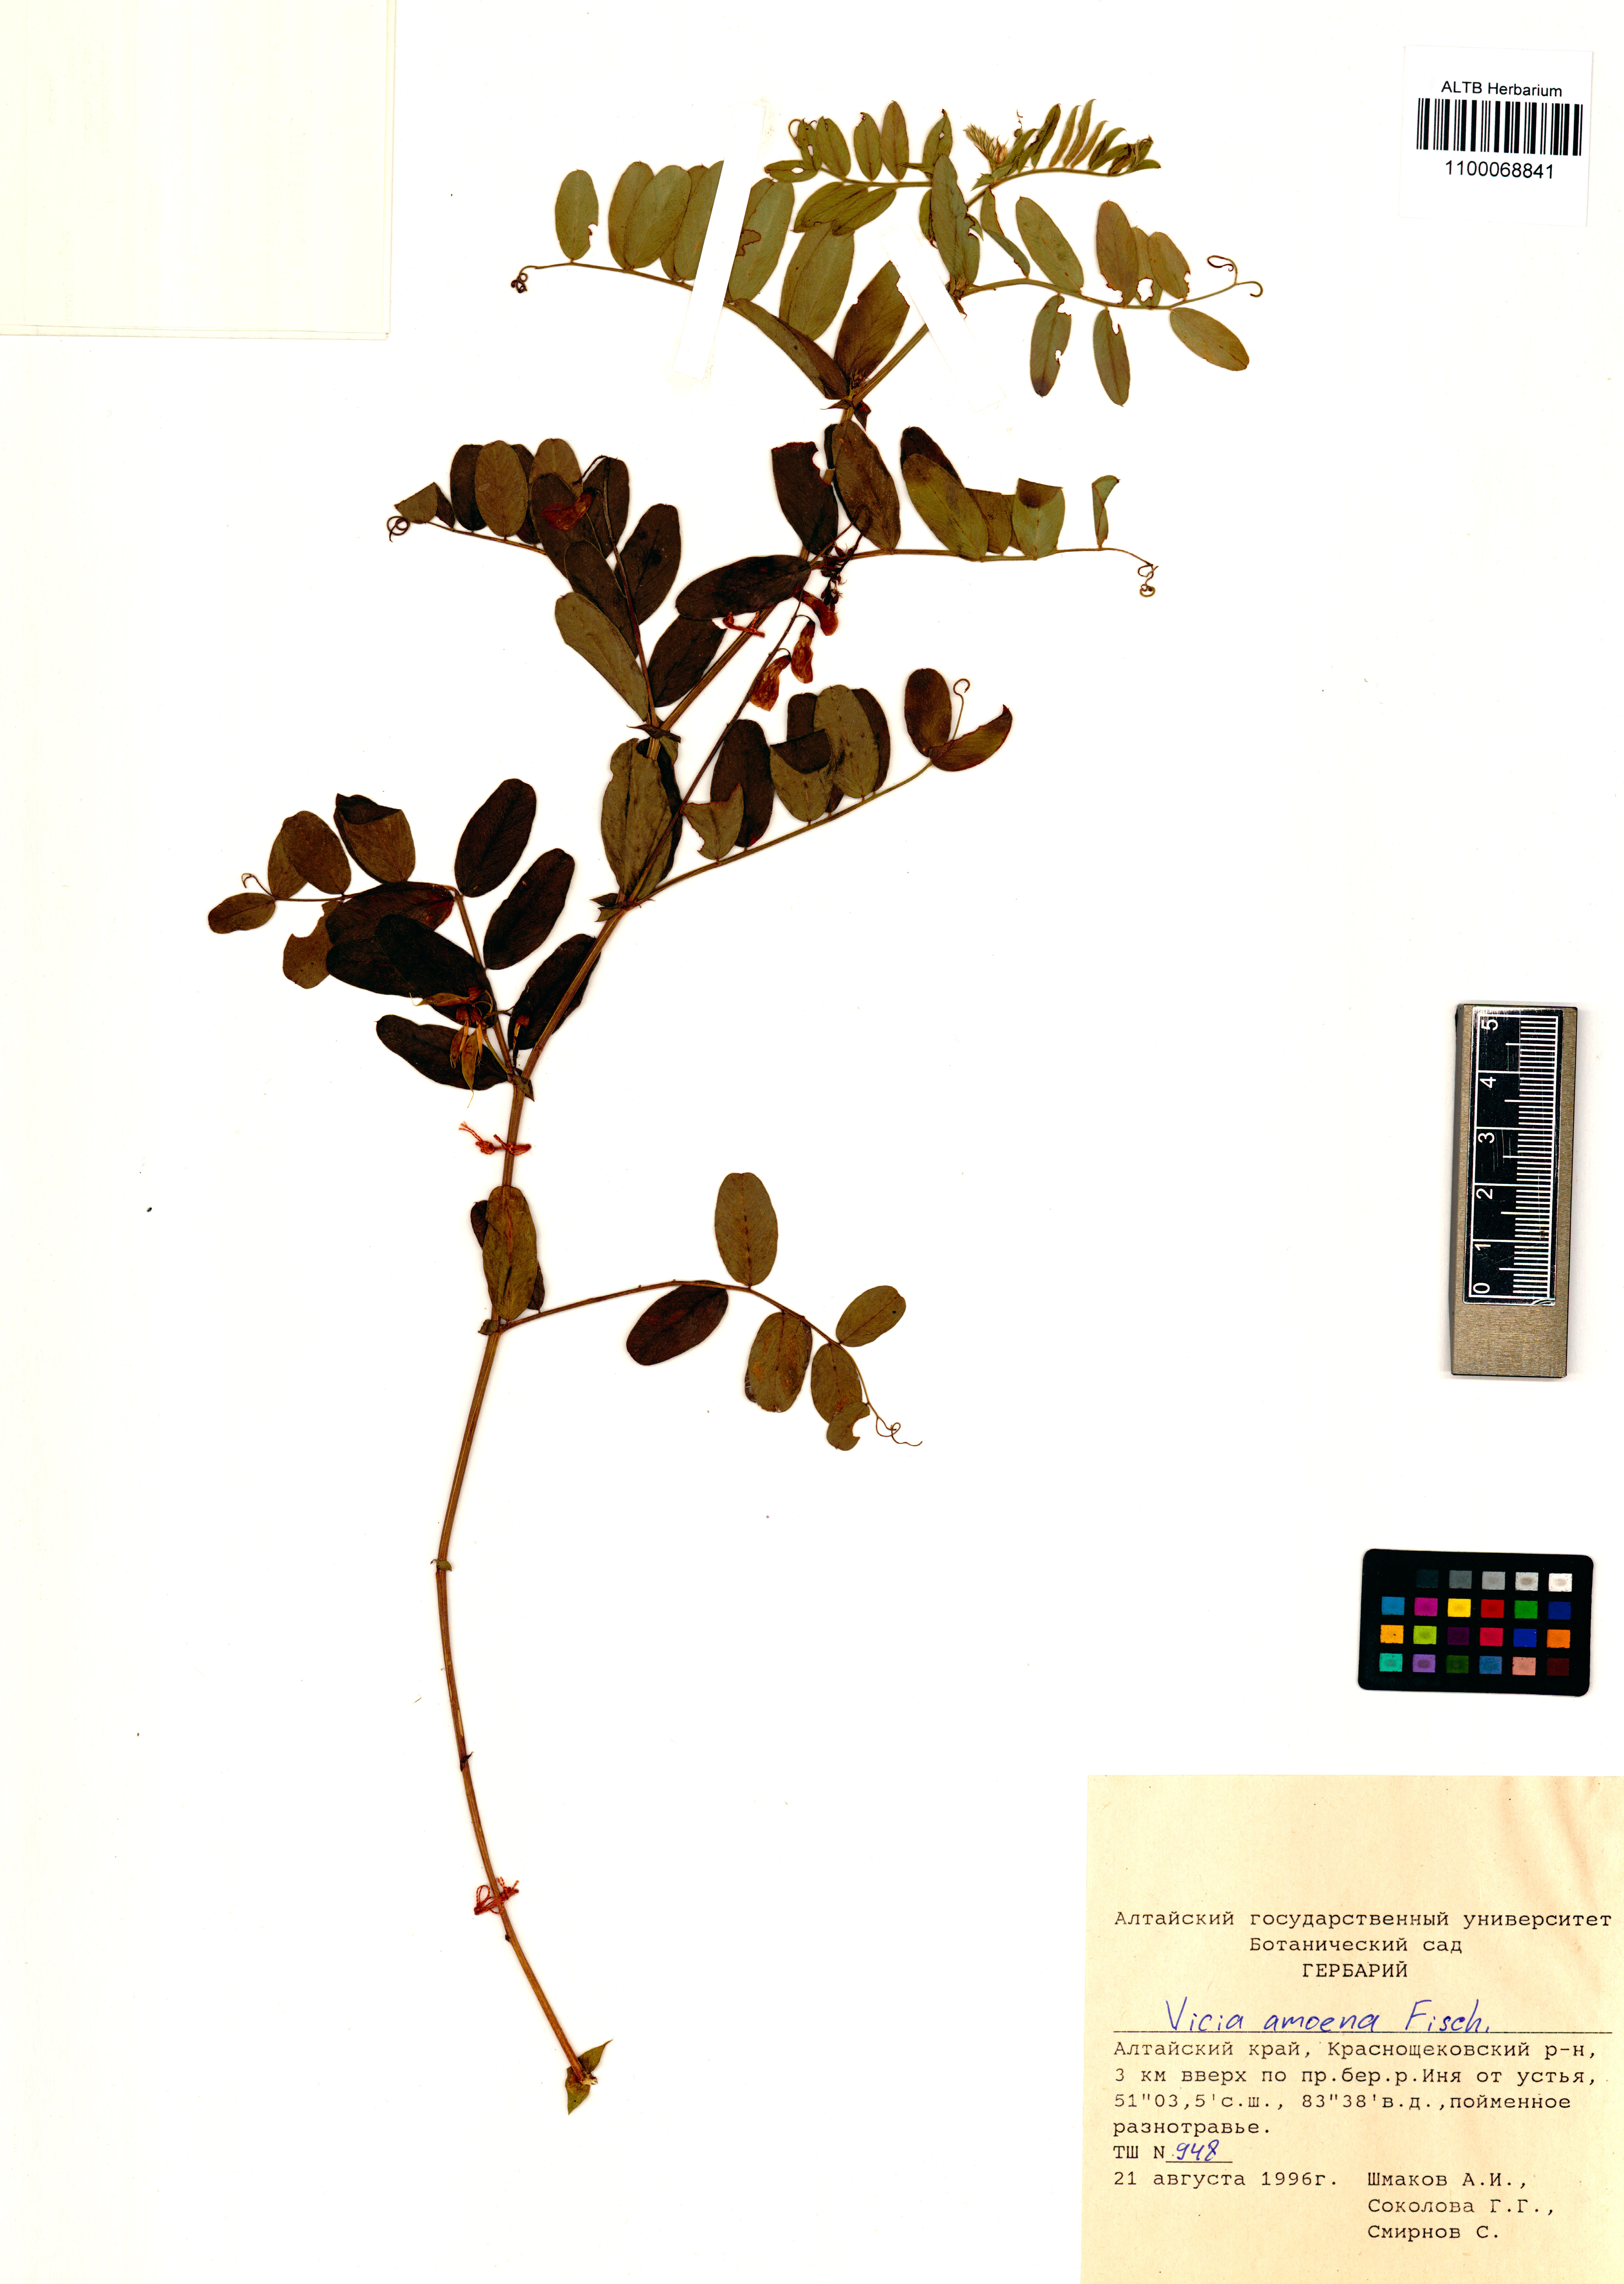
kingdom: Plantae
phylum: Tracheophyta
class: Magnoliopsida
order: Fabales
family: Fabaceae
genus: Vicia
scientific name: Vicia amoena
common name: Cheder ebs
